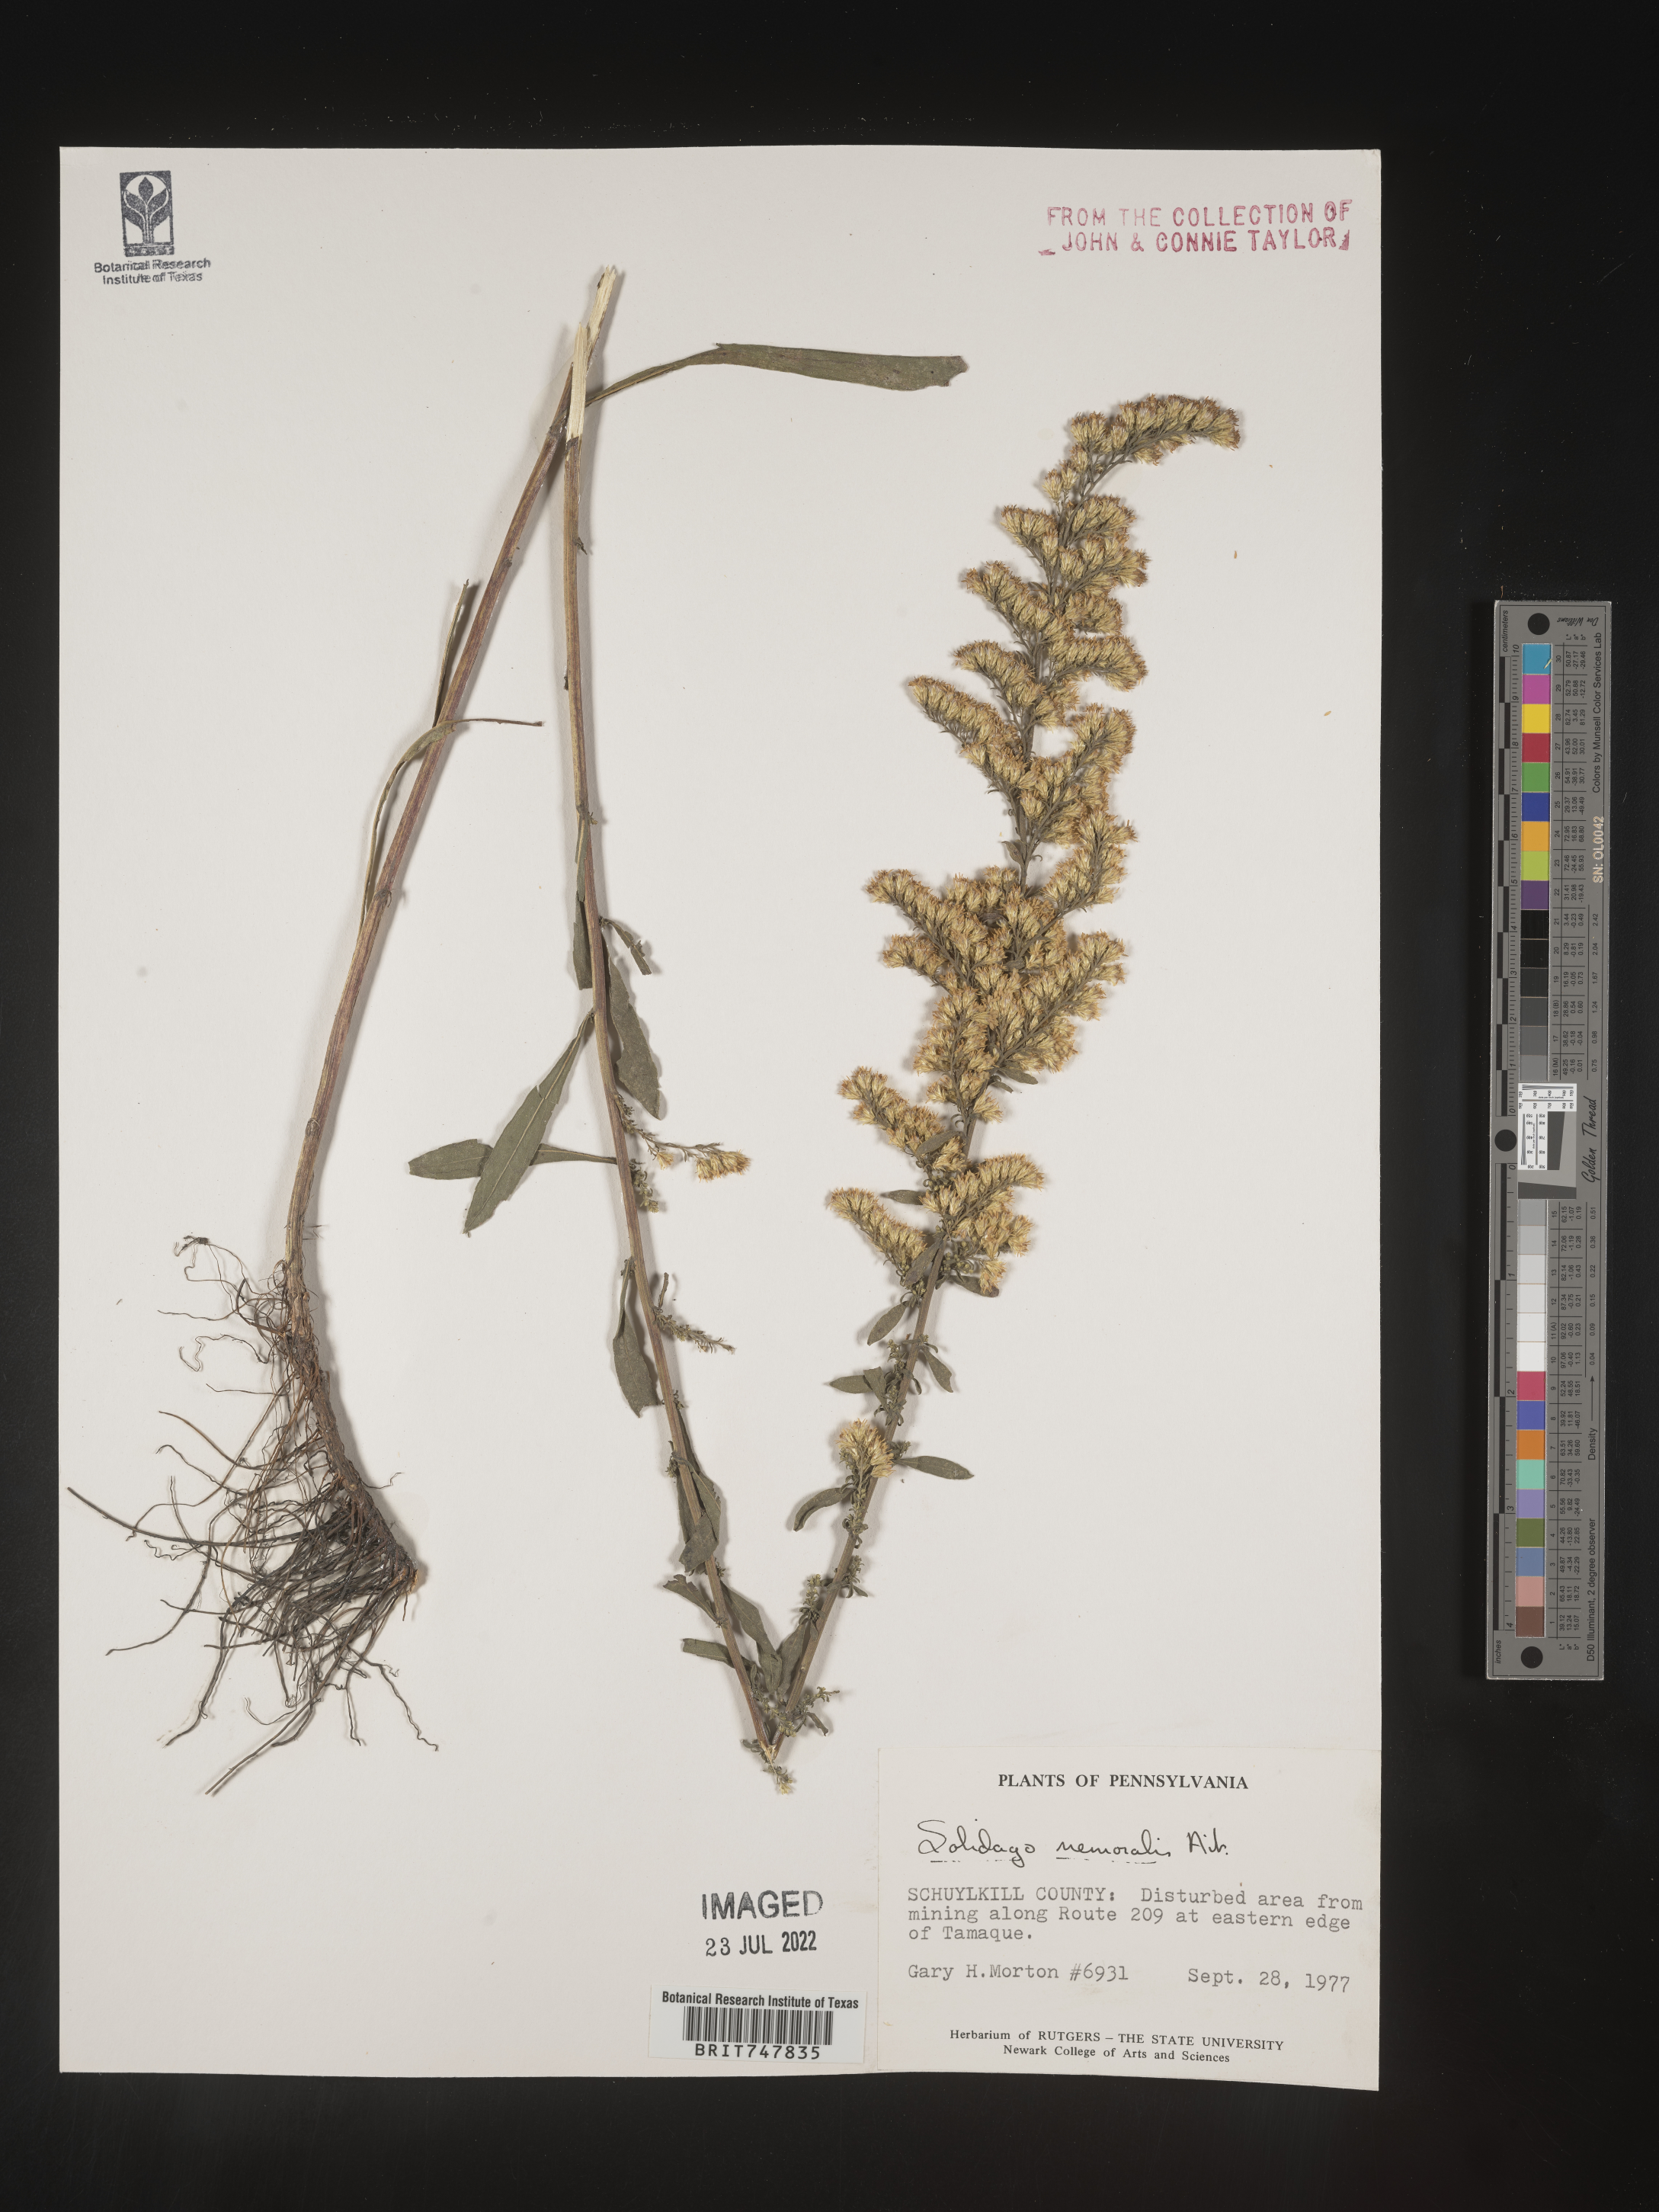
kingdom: Plantae
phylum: Tracheophyta
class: Magnoliopsida
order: Asterales
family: Asteraceae
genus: Solidago
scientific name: Solidago nemoralis
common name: Grey goldenrod
